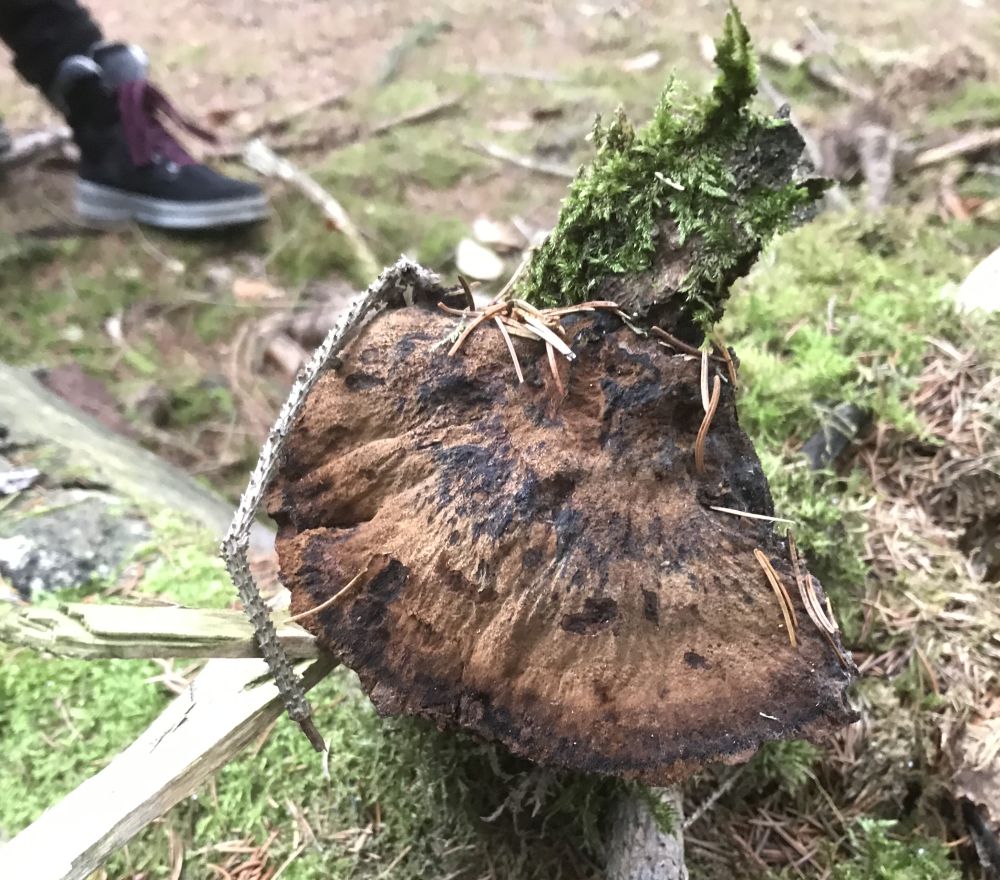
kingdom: Fungi
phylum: Basidiomycota
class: Agaricomycetes
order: Polyporales
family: Ischnodermataceae
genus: Ischnoderma
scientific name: Ischnoderma benzoinum
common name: gran-tjæreporesvamp
